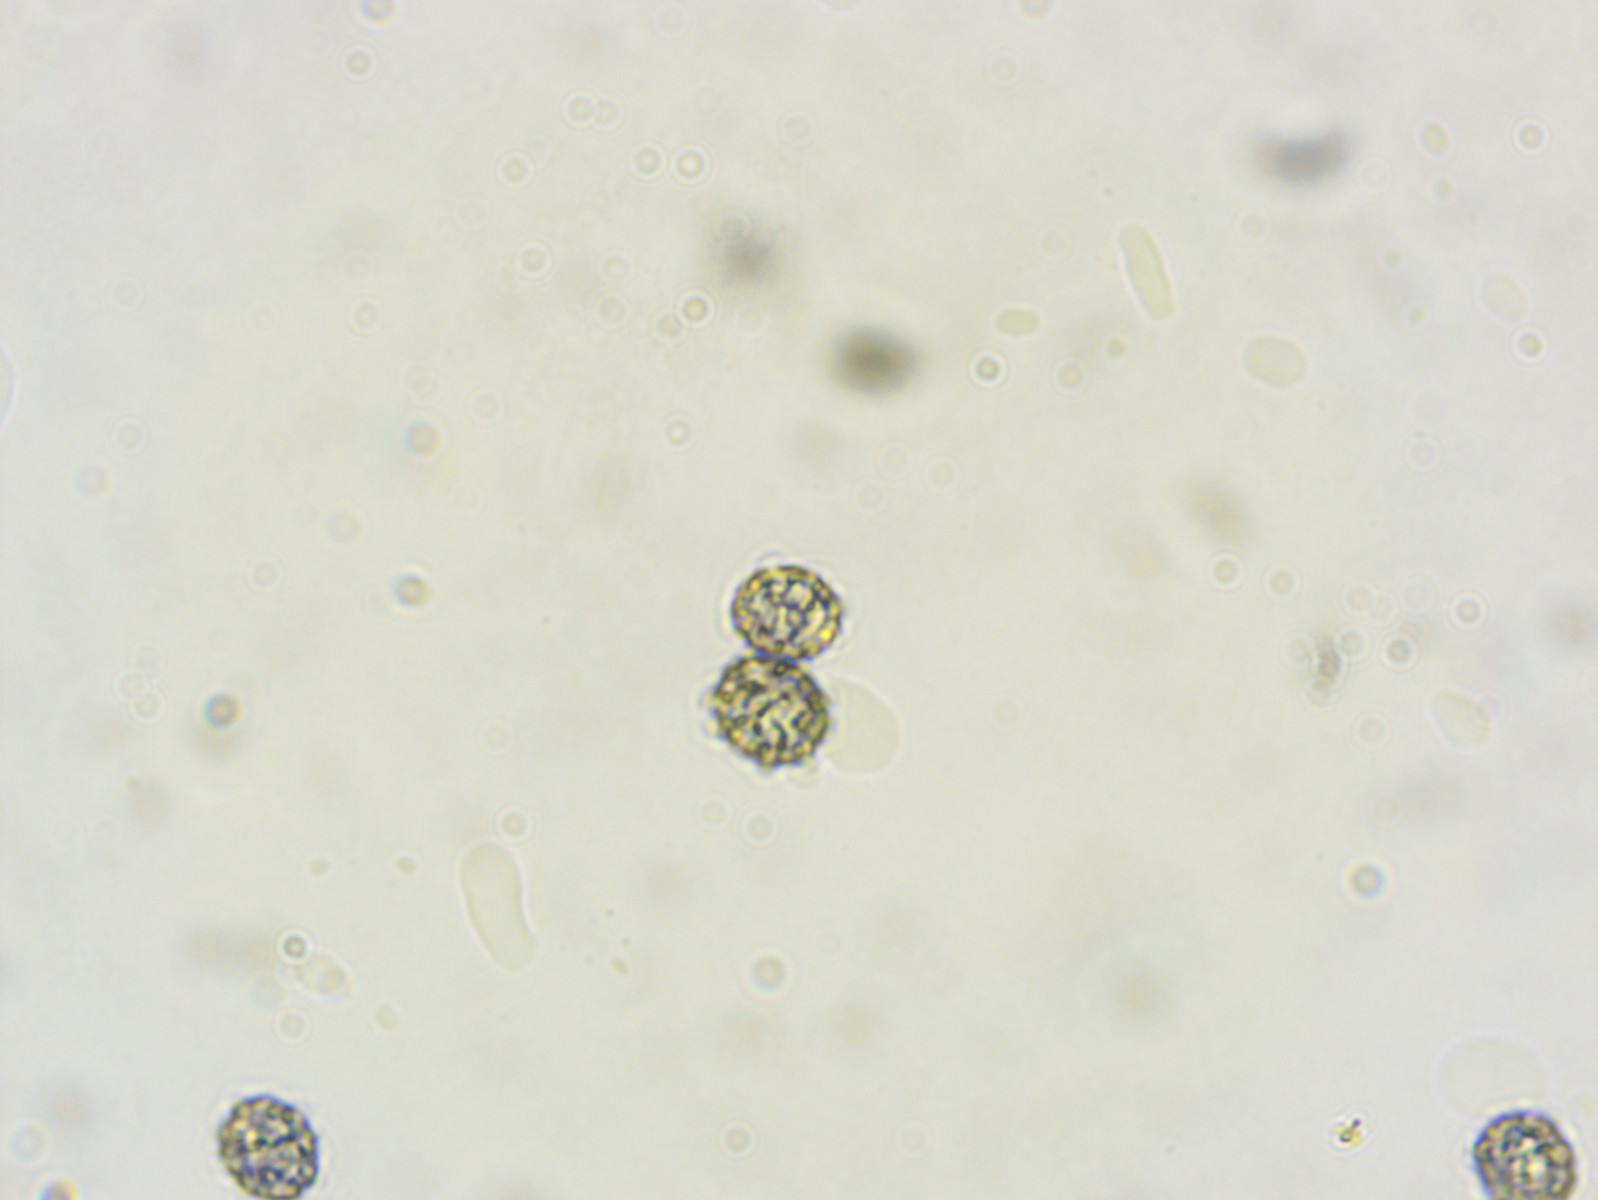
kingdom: Fungi
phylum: Basidiomycota
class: Agaricomycetes
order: Russulales
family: Russulaceae
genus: Russula
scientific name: Russula cessans
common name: fyrre-skørhat
